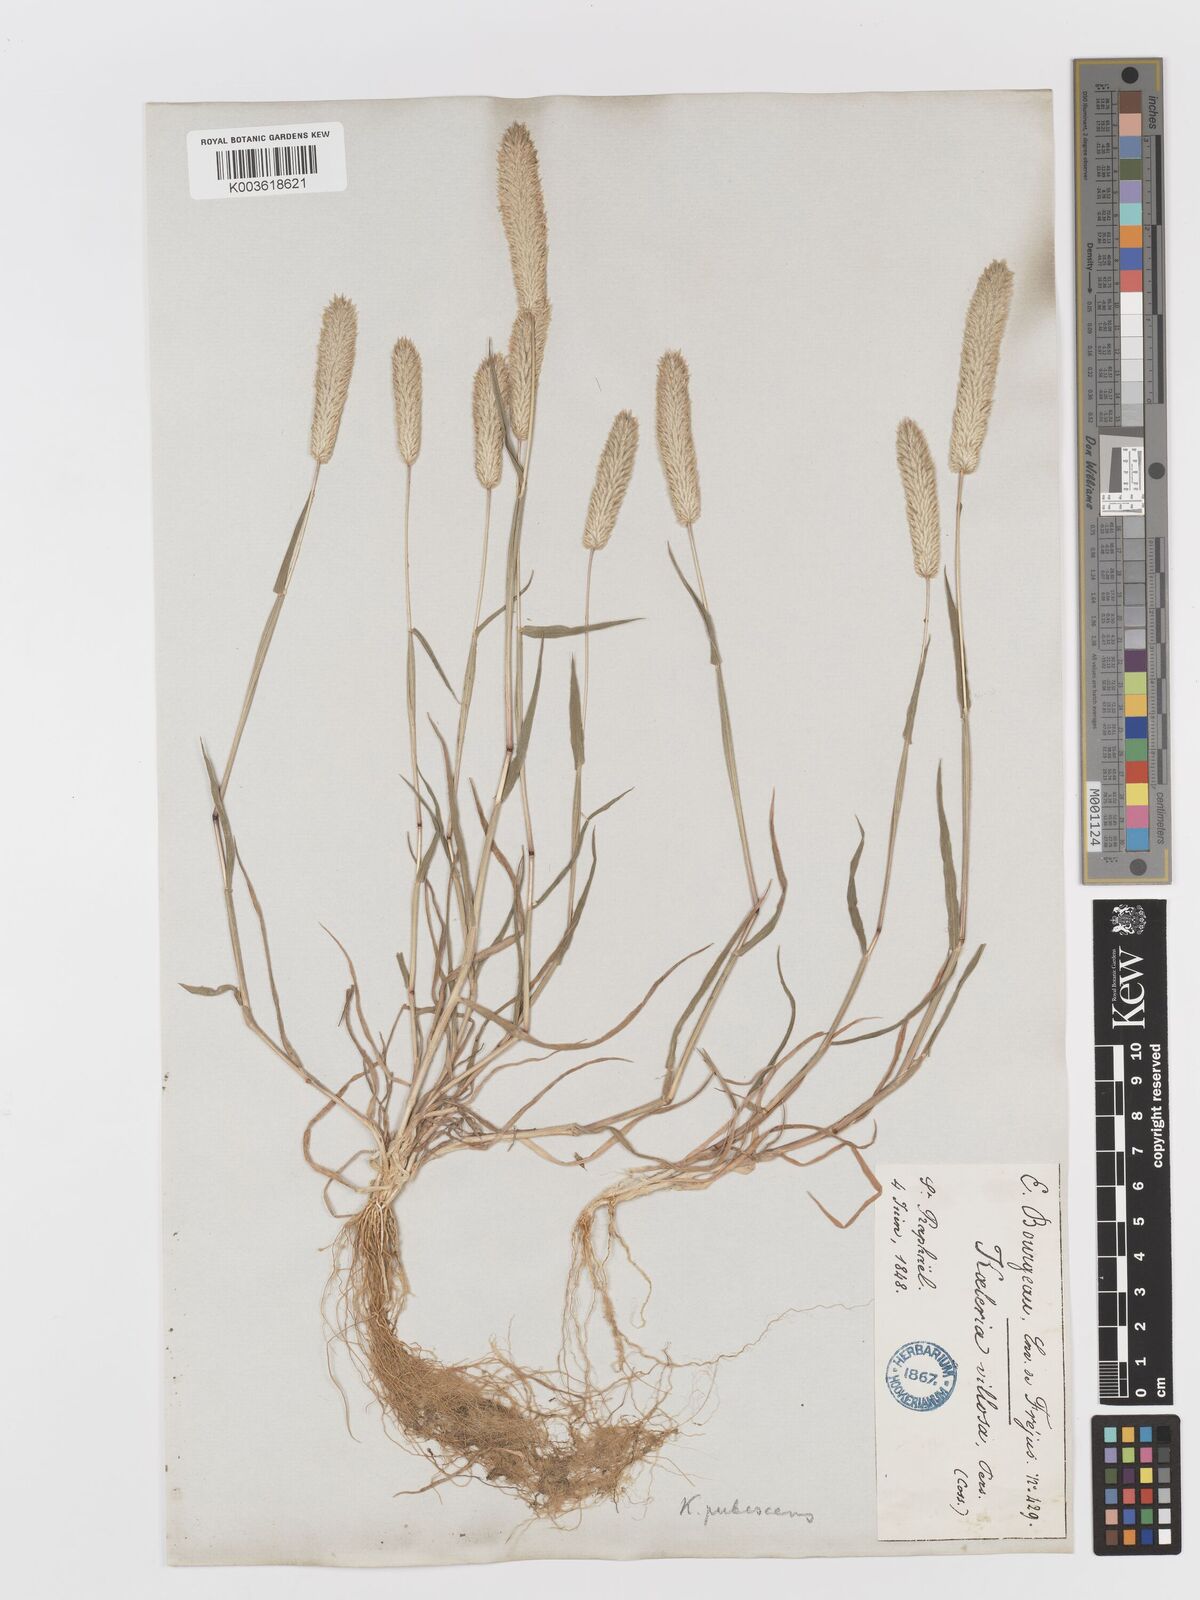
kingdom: Plantae
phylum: Tracheophyta
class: Liliopsida
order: Poales
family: Poaceae
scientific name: Poaceae
